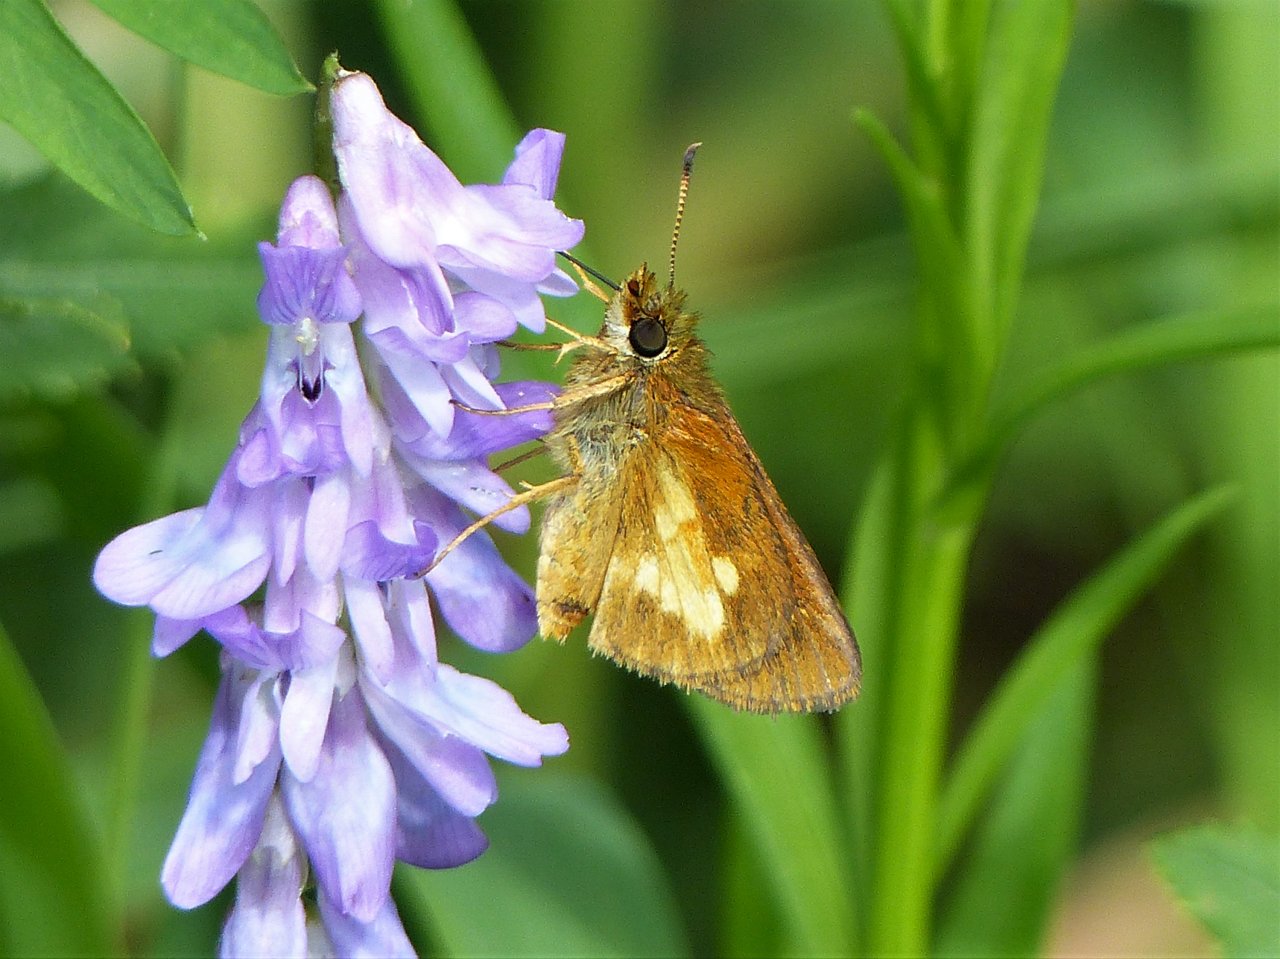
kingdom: Animalia
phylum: Arthropoda
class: Insecta
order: Lepidoptera
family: Hesperiidae
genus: Poanes
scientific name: Poanes massasoit
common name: Mulberry Wing
